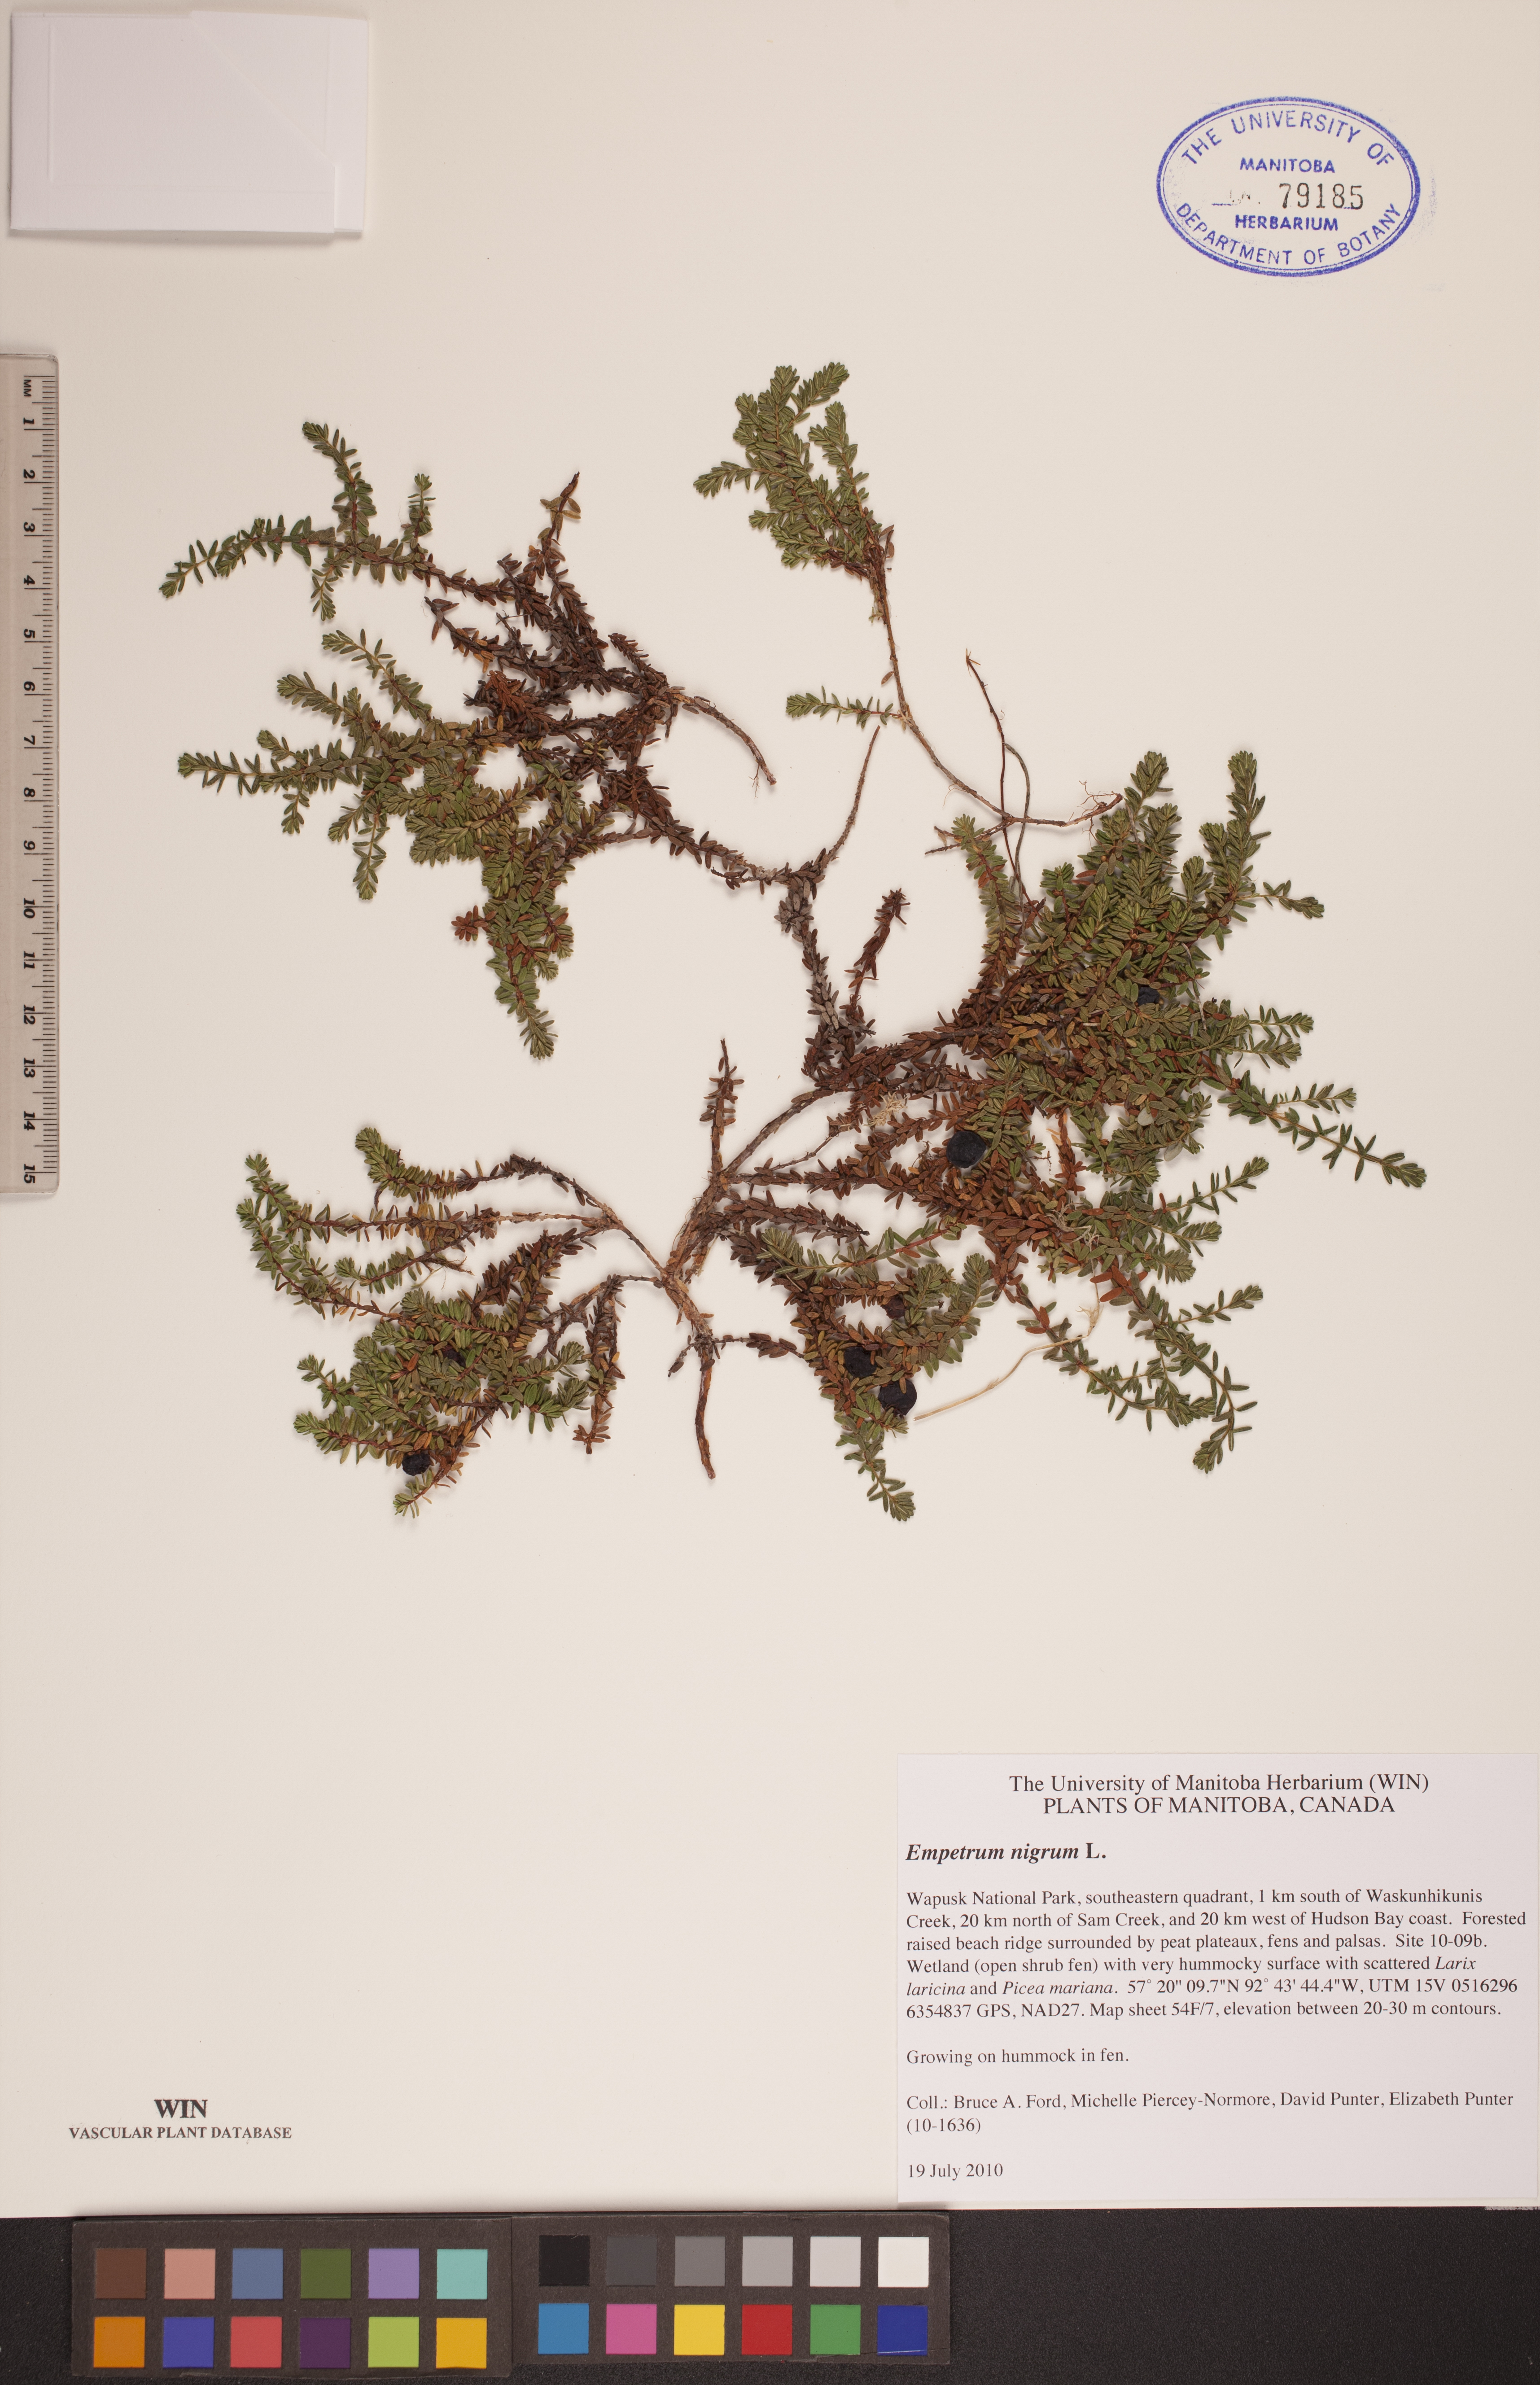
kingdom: Plantae
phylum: Tracheophyta
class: Magnoliopsida
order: Ericales
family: Ericaceae
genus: Empetrum
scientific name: Empetrum nigrum
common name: Black crowberry
